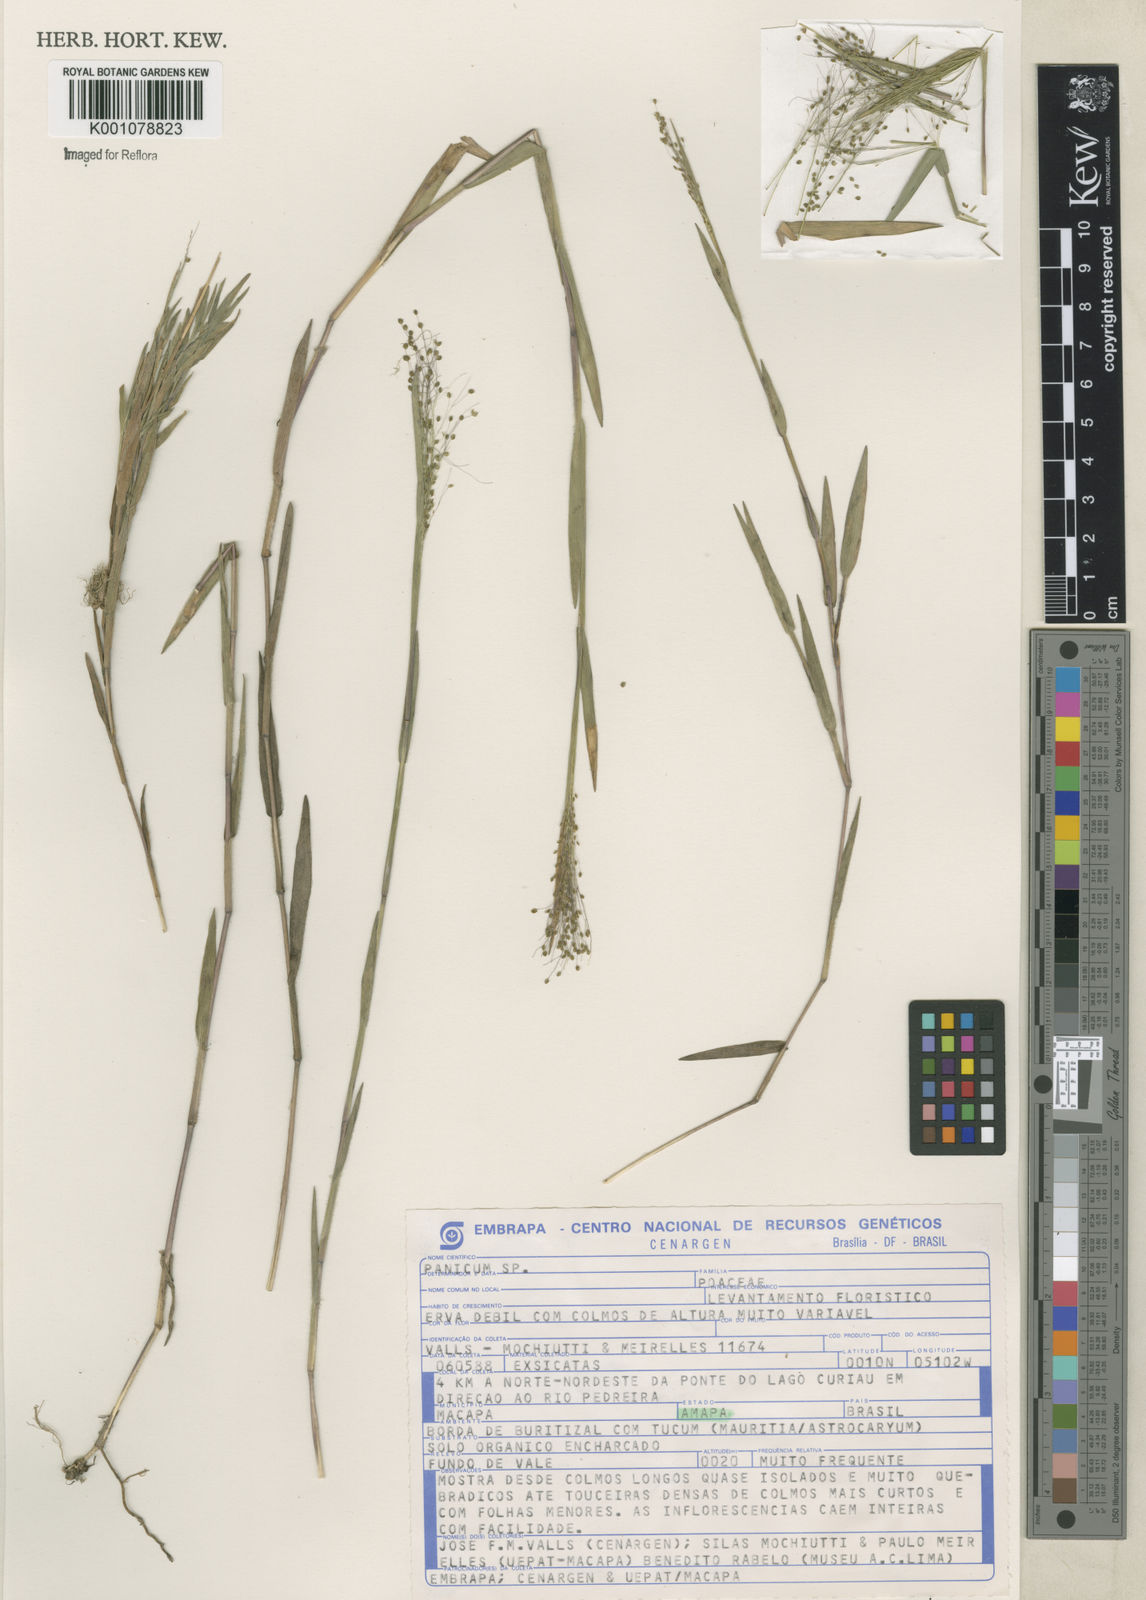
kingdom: Plantae
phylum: Tracheophyta
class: Liliopsida
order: Poales
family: Poaceae
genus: Trichanthecium
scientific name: Trichanthecium schwackeanum
